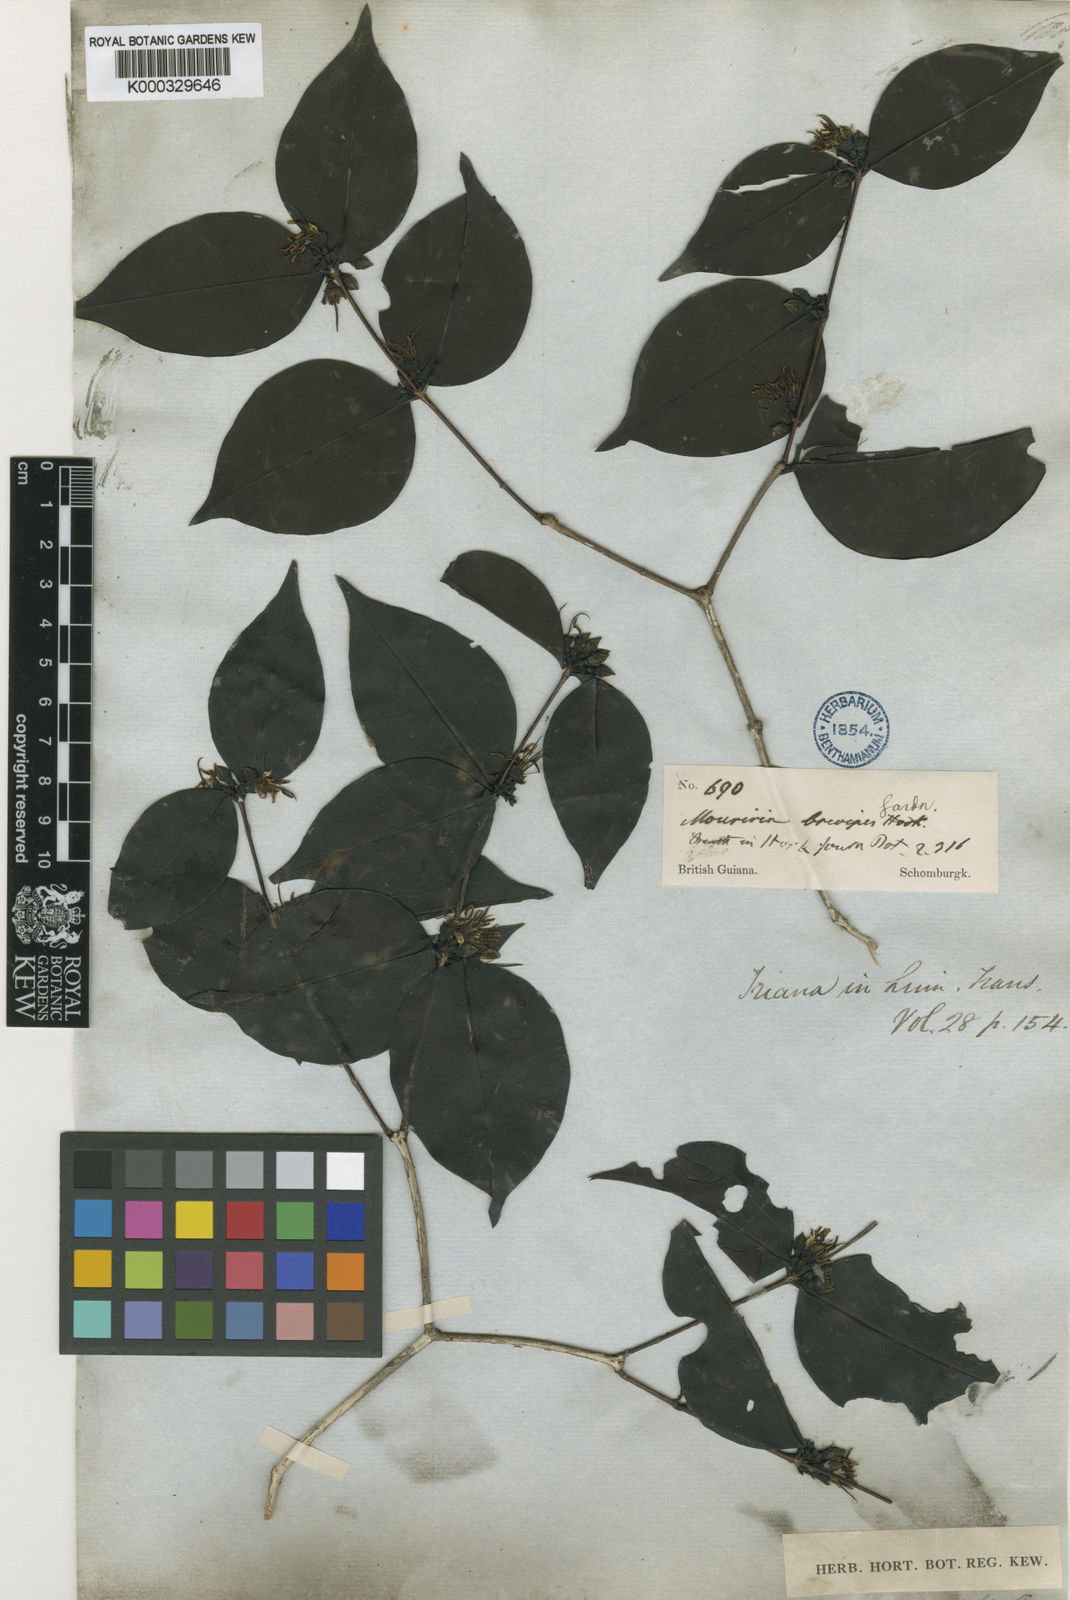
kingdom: Plantae
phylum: Tracheophyta
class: Magnoliopsida
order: Myrtales
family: Melastomataceae
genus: Mouriri
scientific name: Mouriri
